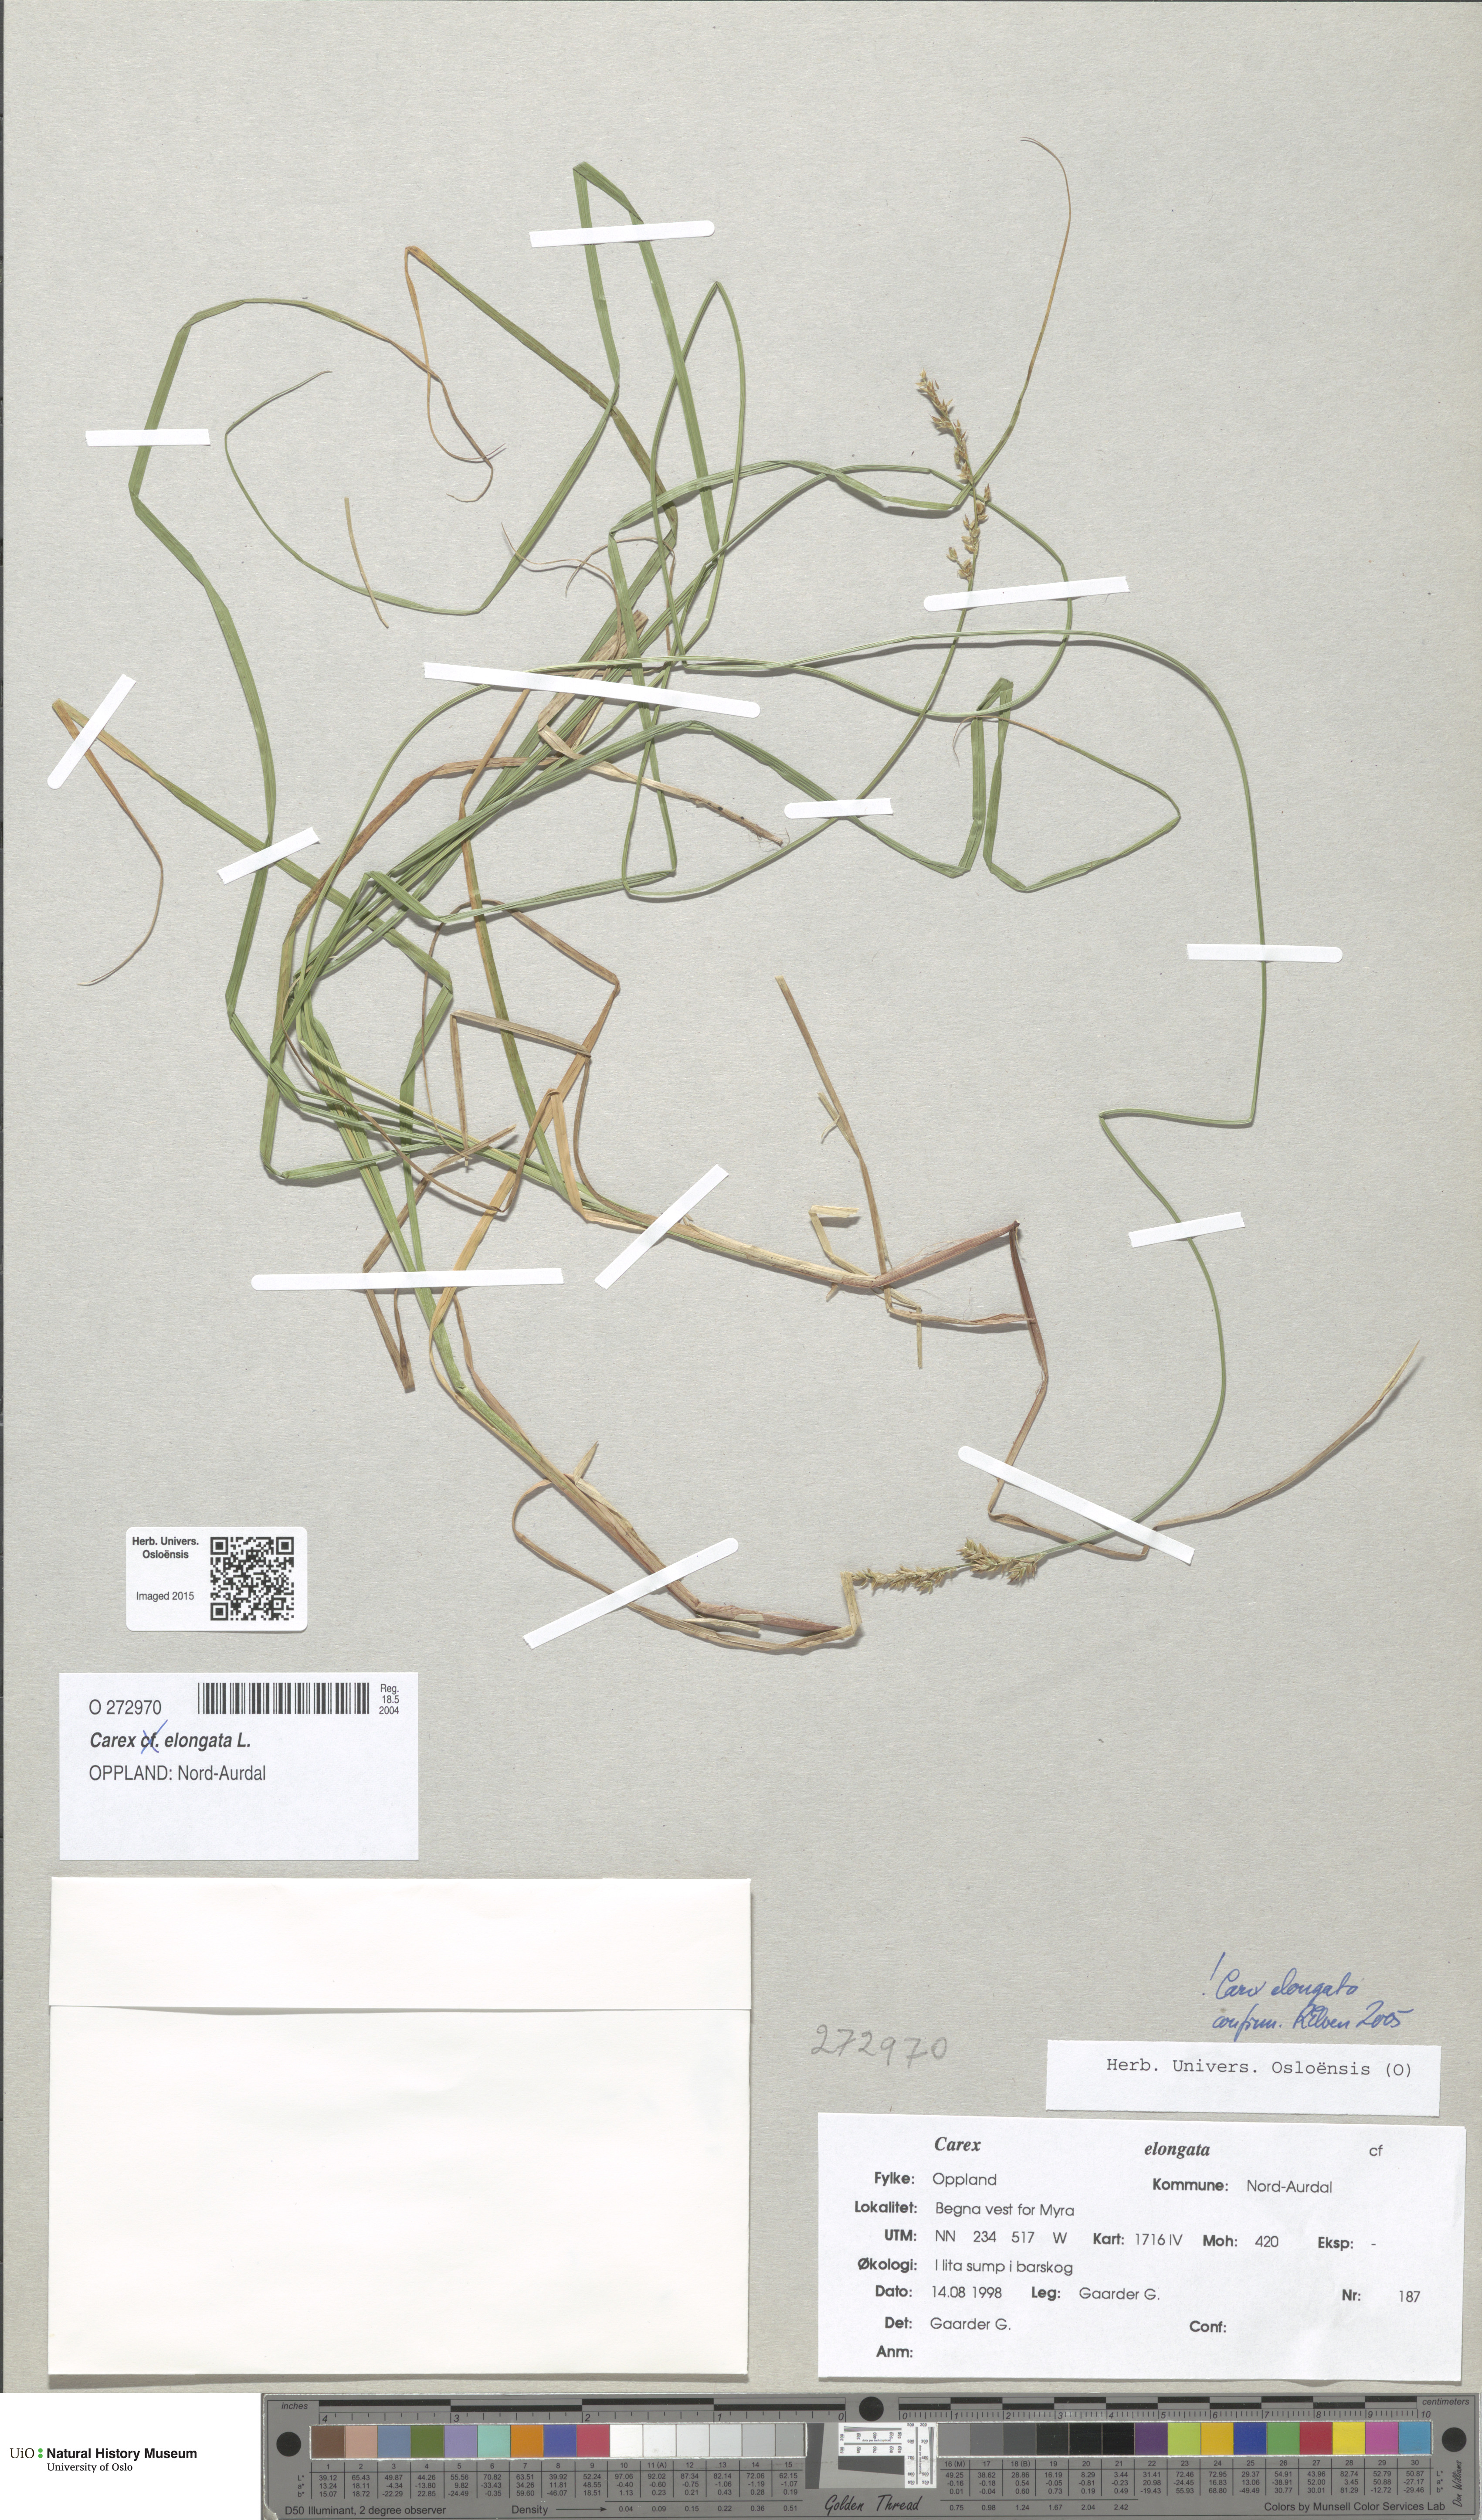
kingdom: Plantae
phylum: Tracheophyta
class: Liliopsida
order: Poales
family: Cyperaceae
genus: Carex
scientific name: Carex elongata
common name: Elongated sedge
